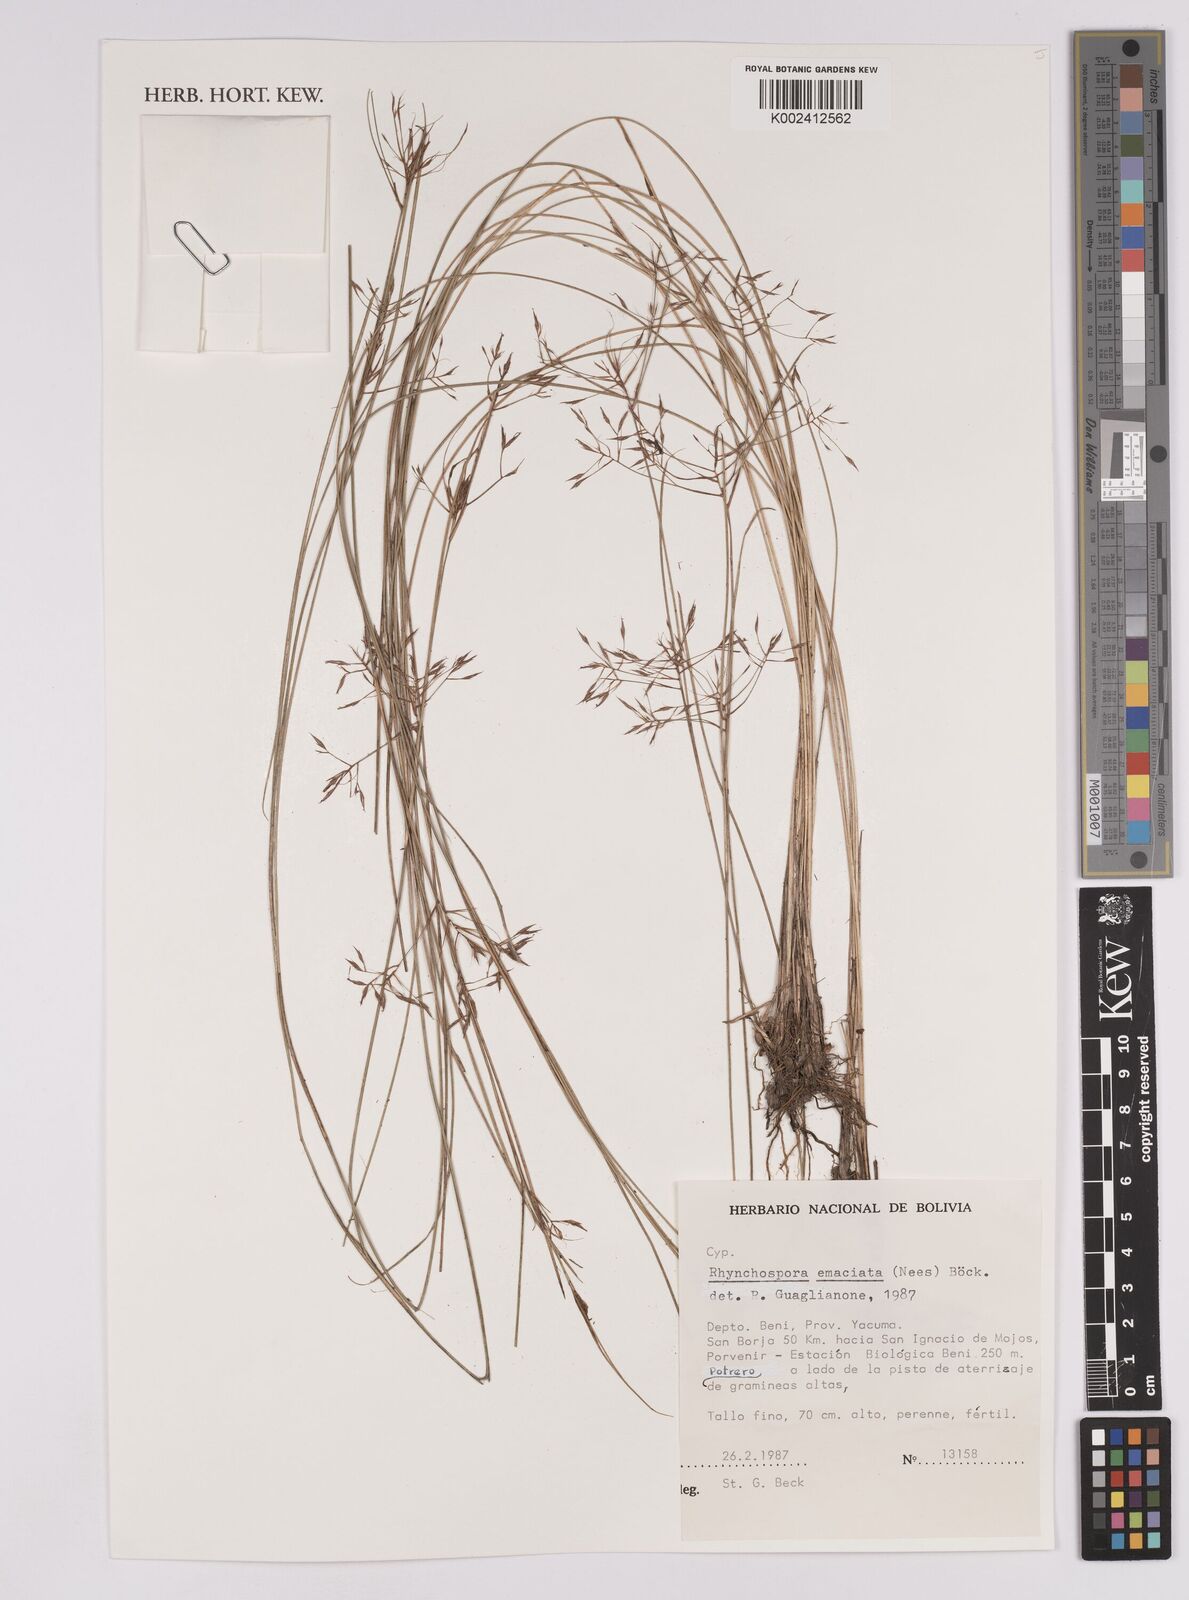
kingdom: Plantae
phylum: Tracheophyta
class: Liliopsida
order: Poales
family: Cyperaceae
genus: Rhynchospora
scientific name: Rhynchospora emaciata
